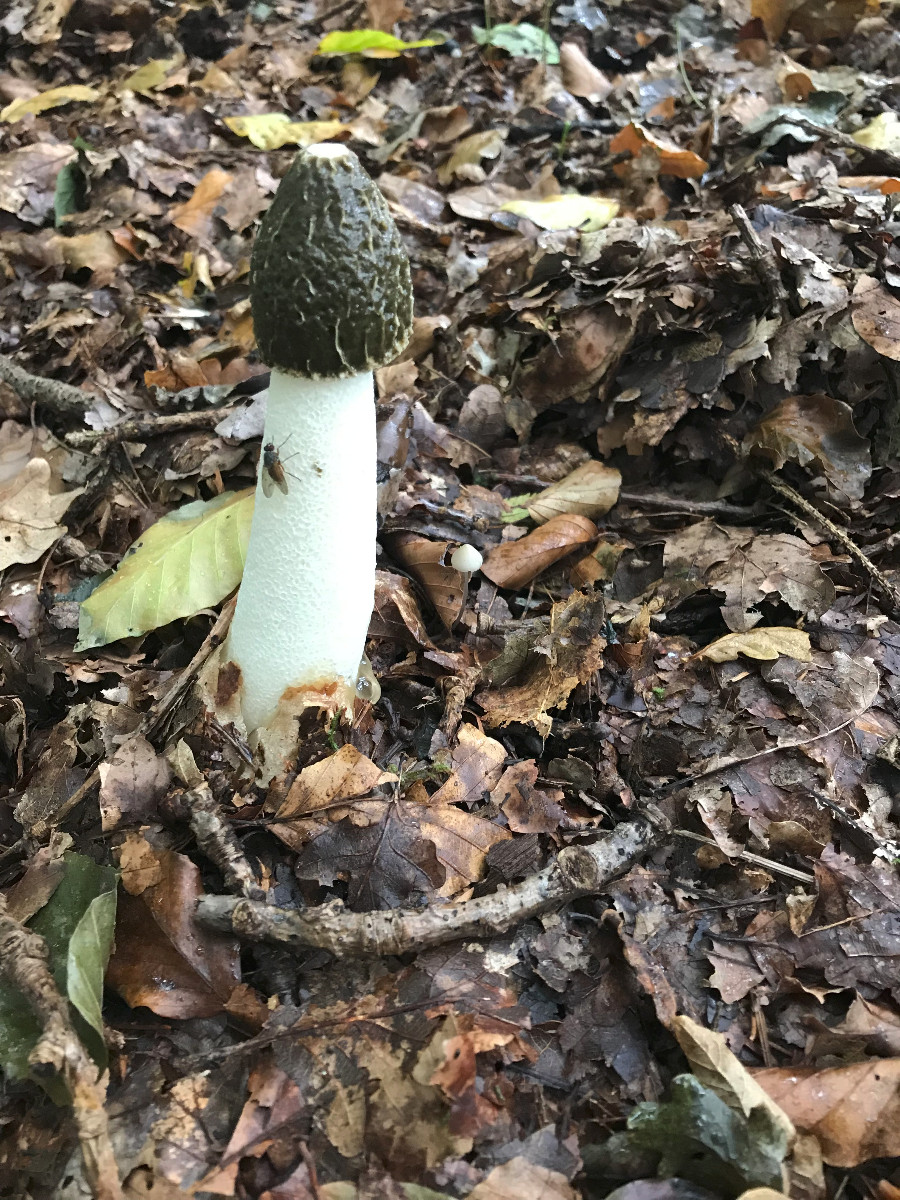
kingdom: Fungi
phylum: Basidiomycota
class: Agaricomycetes
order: Phallales
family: Phallaceae
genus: Phallus
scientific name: Phallus impudicus
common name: almindelig stinksvamp
